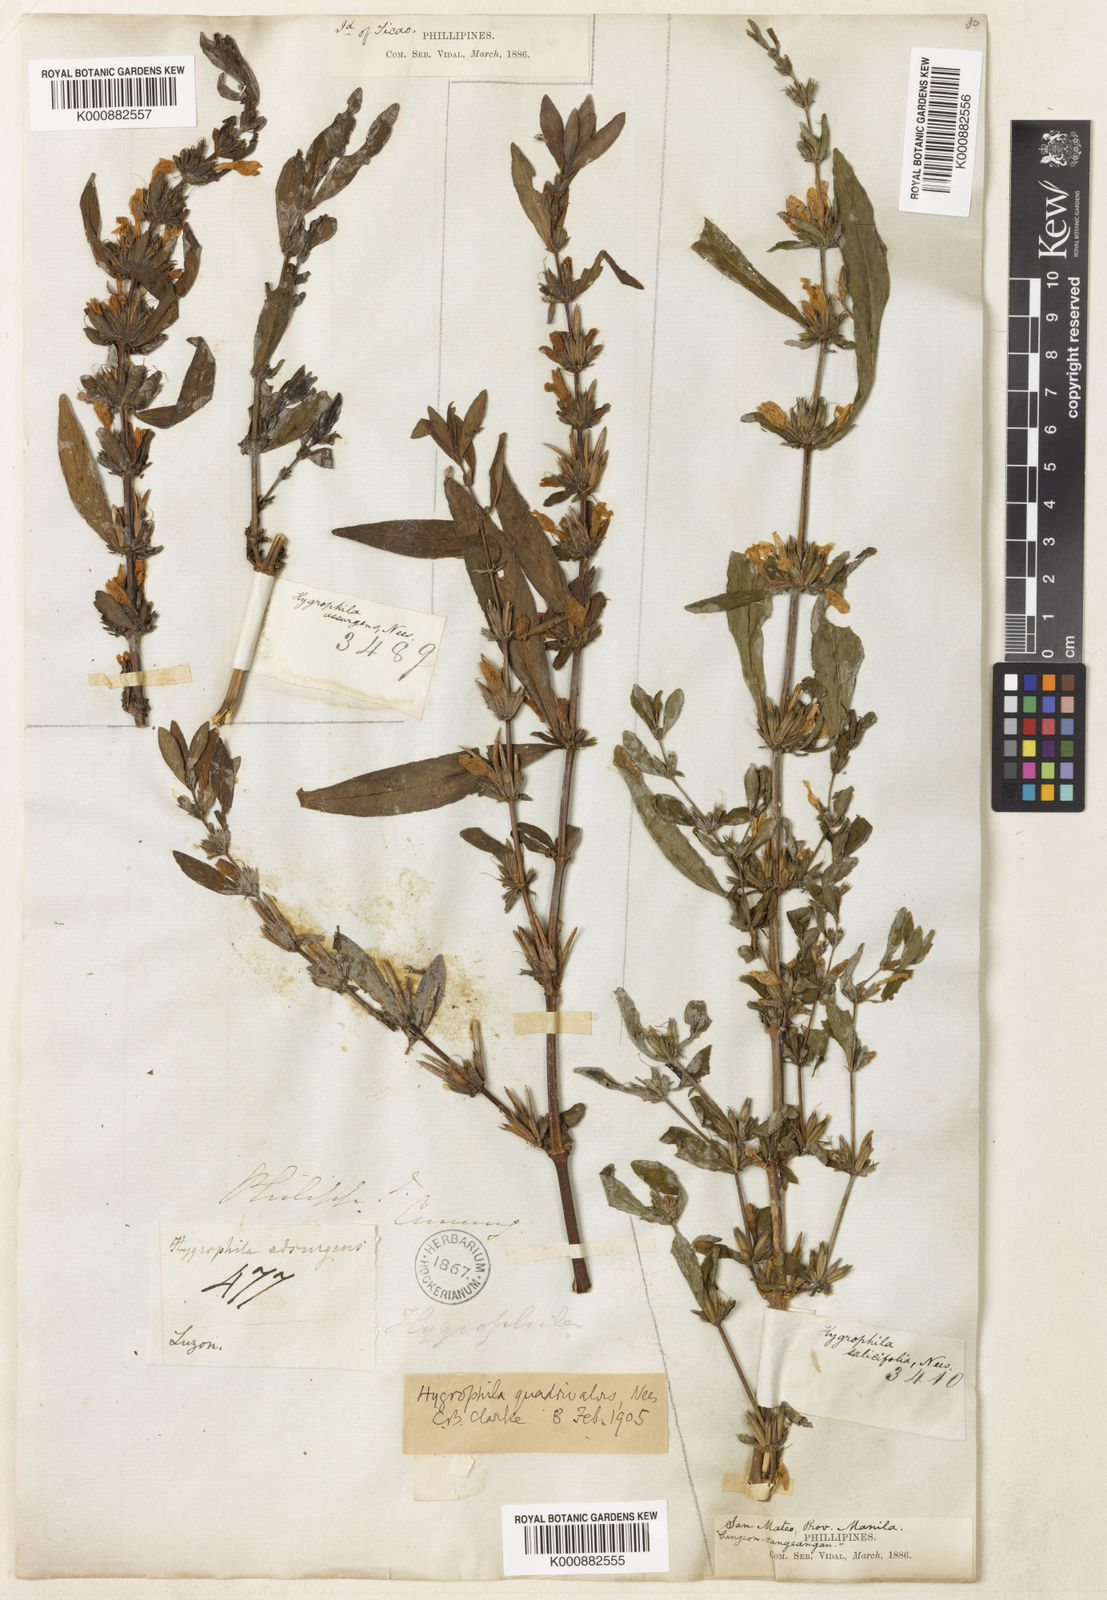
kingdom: Plantae
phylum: Tracheophyta
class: Magnoliopsida
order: Lamiales
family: Acanthaceae
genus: Hygrophila
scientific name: Hygrophila ringens
